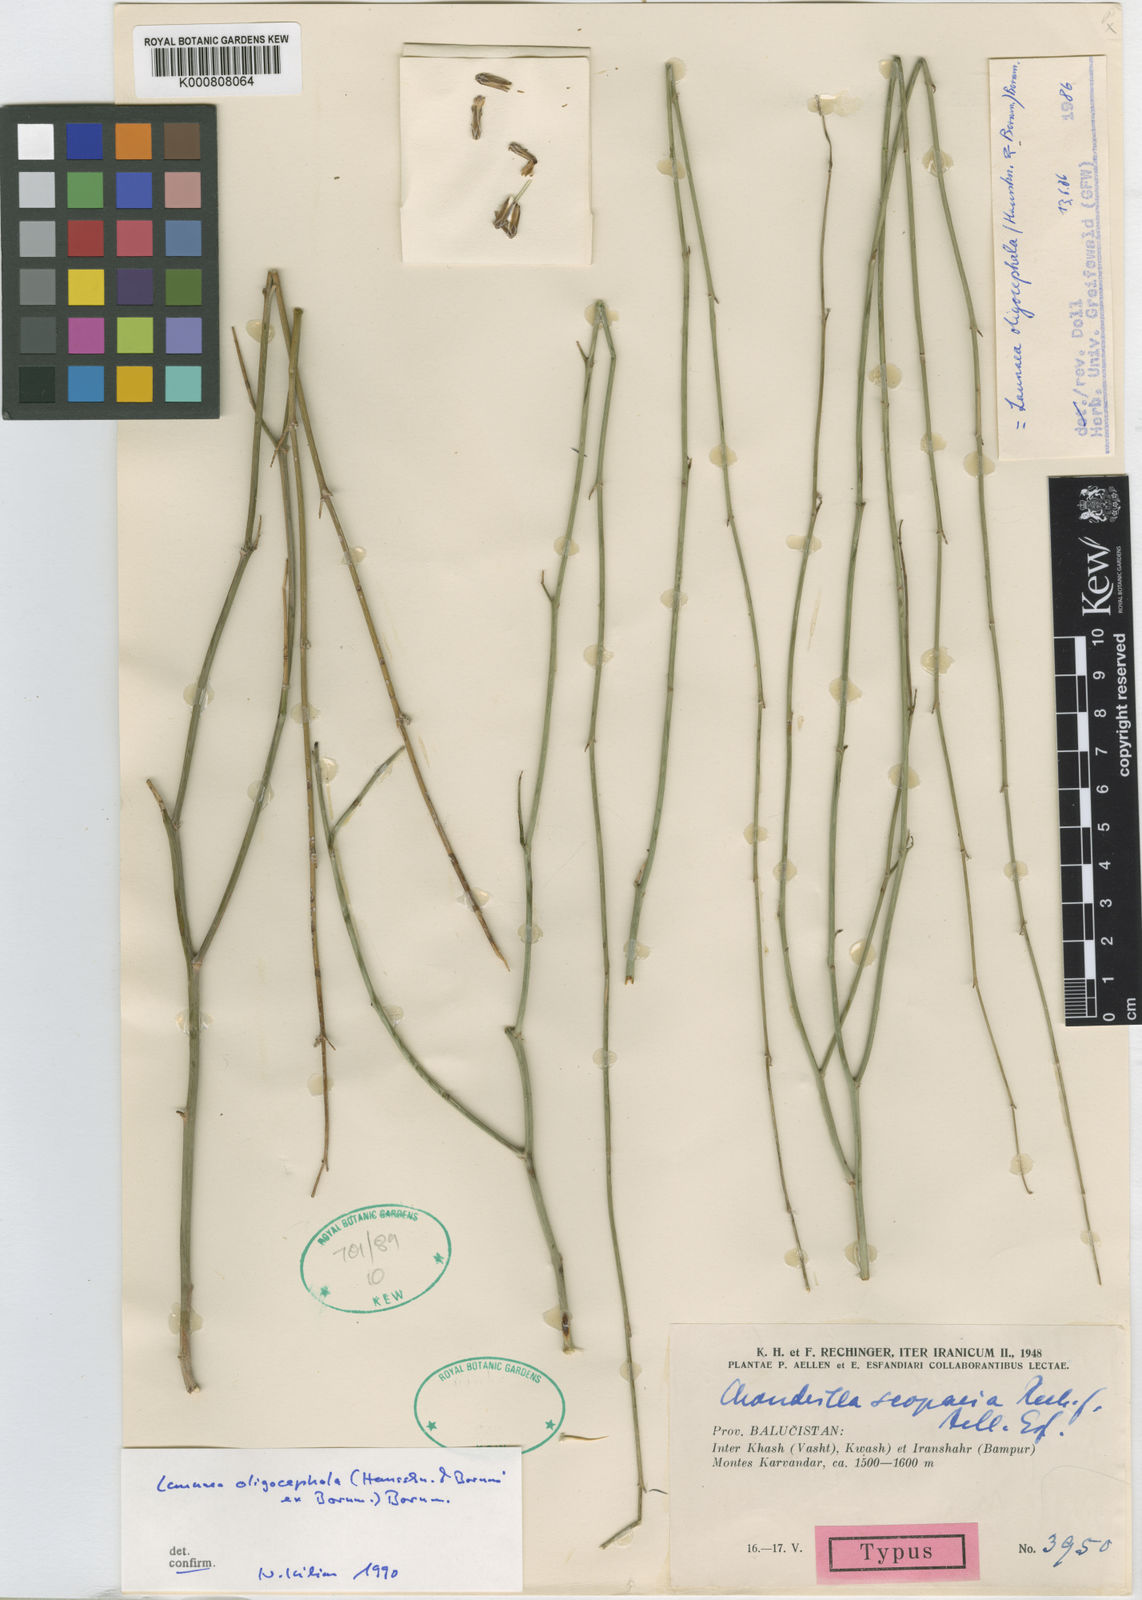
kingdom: Plantae
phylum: Tracheophyta
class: Magnoliopsida
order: Asterales
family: Asteraceae
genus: Launaea
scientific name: Launaea oligocephala
